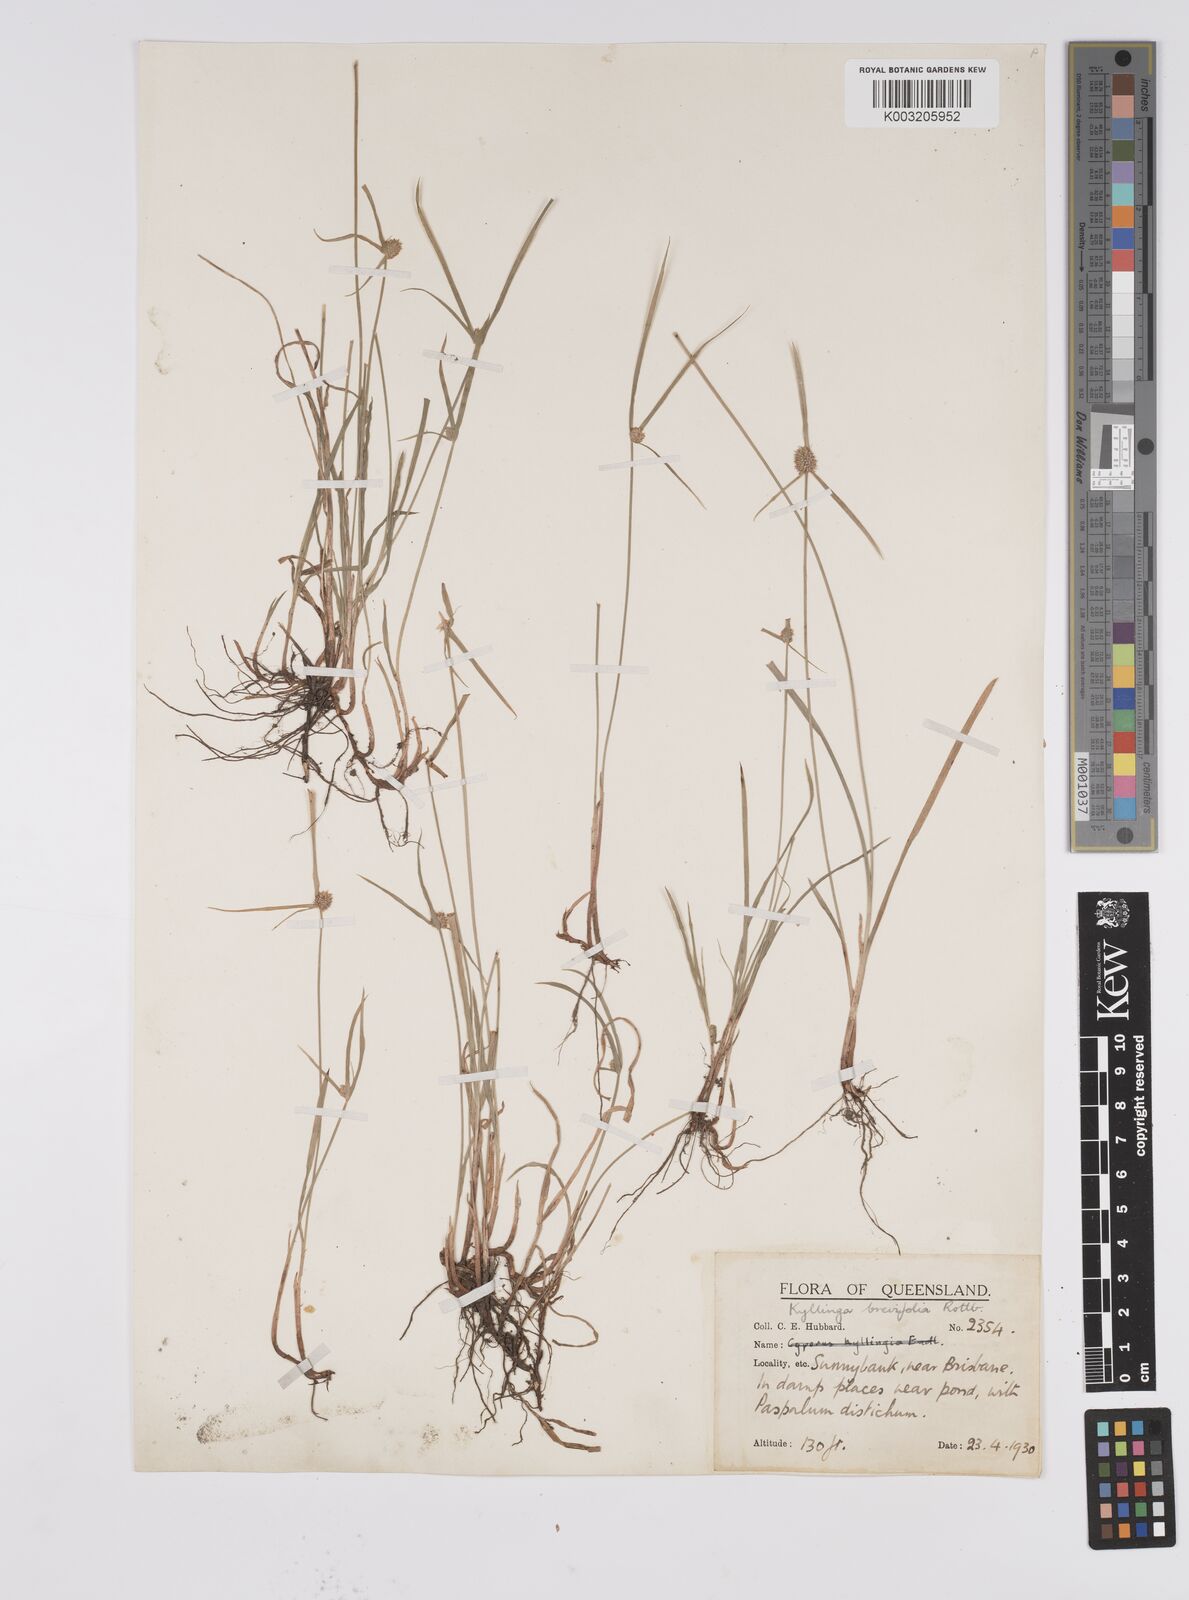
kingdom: Plantae
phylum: Tracheophyta
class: Liliopsida
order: Poales
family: Cyperaceae
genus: Cyperus
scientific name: Cyperus brevifolius
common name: Globe kyllinga
